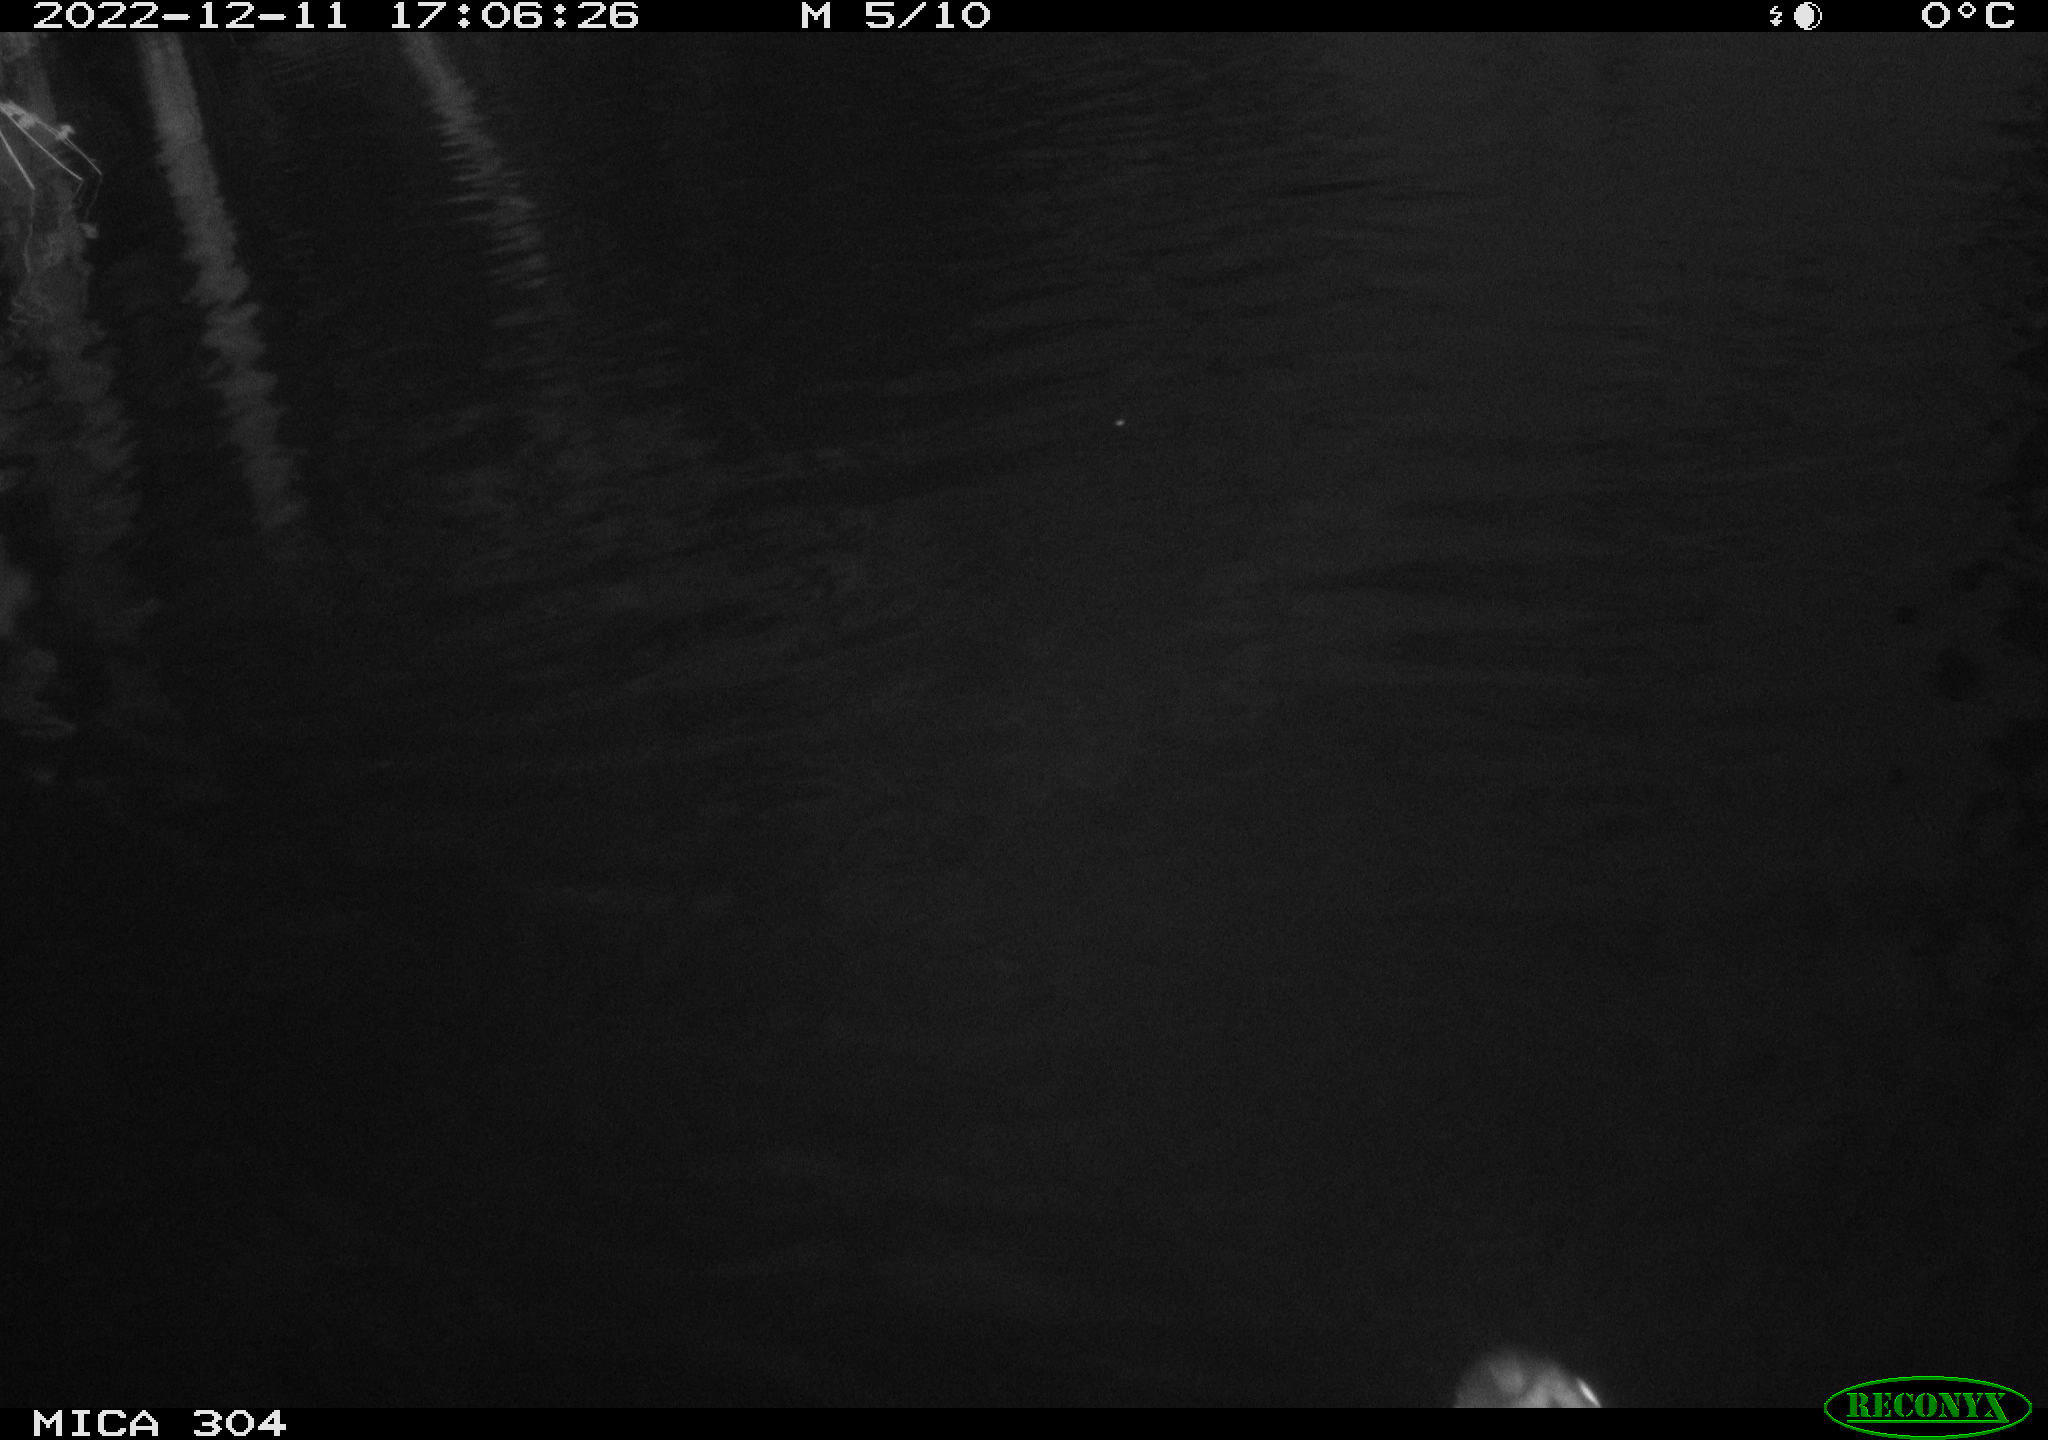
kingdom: Animalia
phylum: Chordata
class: Aves
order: Anseriformes
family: Anatidae
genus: Anas
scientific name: Anas
